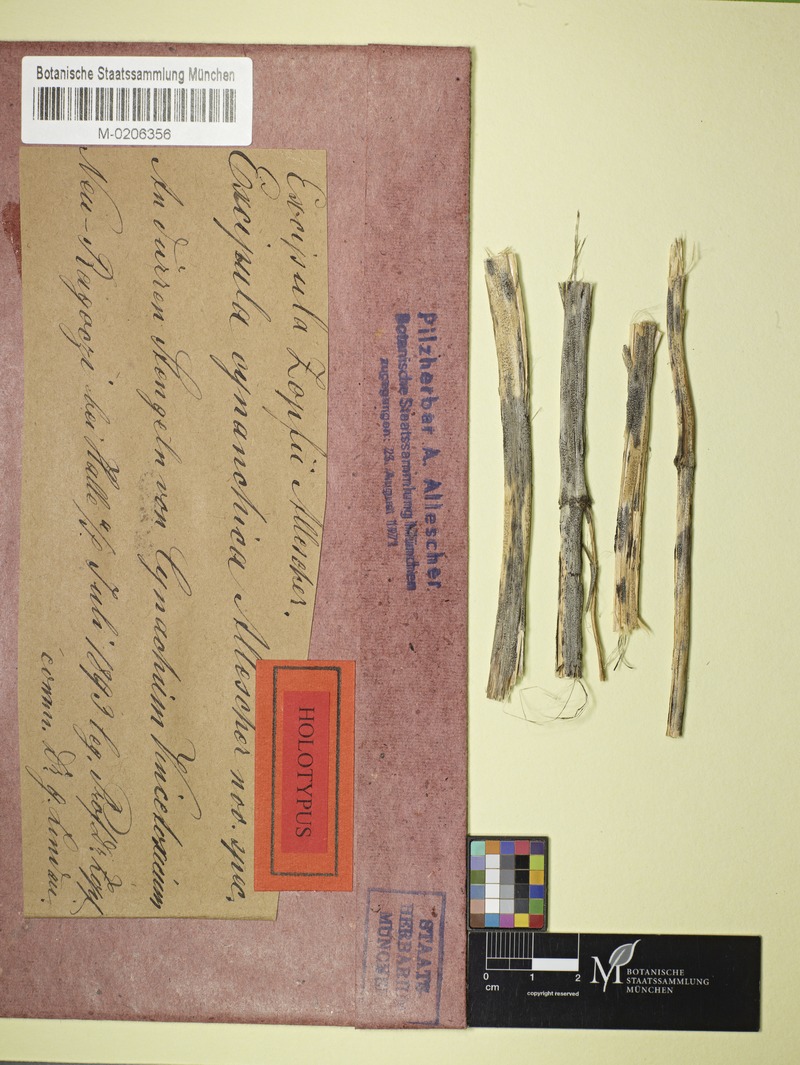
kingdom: Fungi
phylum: Ascomycota
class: Leotiomycetes
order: Helotiales
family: Ploettnerulaceae
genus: Excipula
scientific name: Excipula
